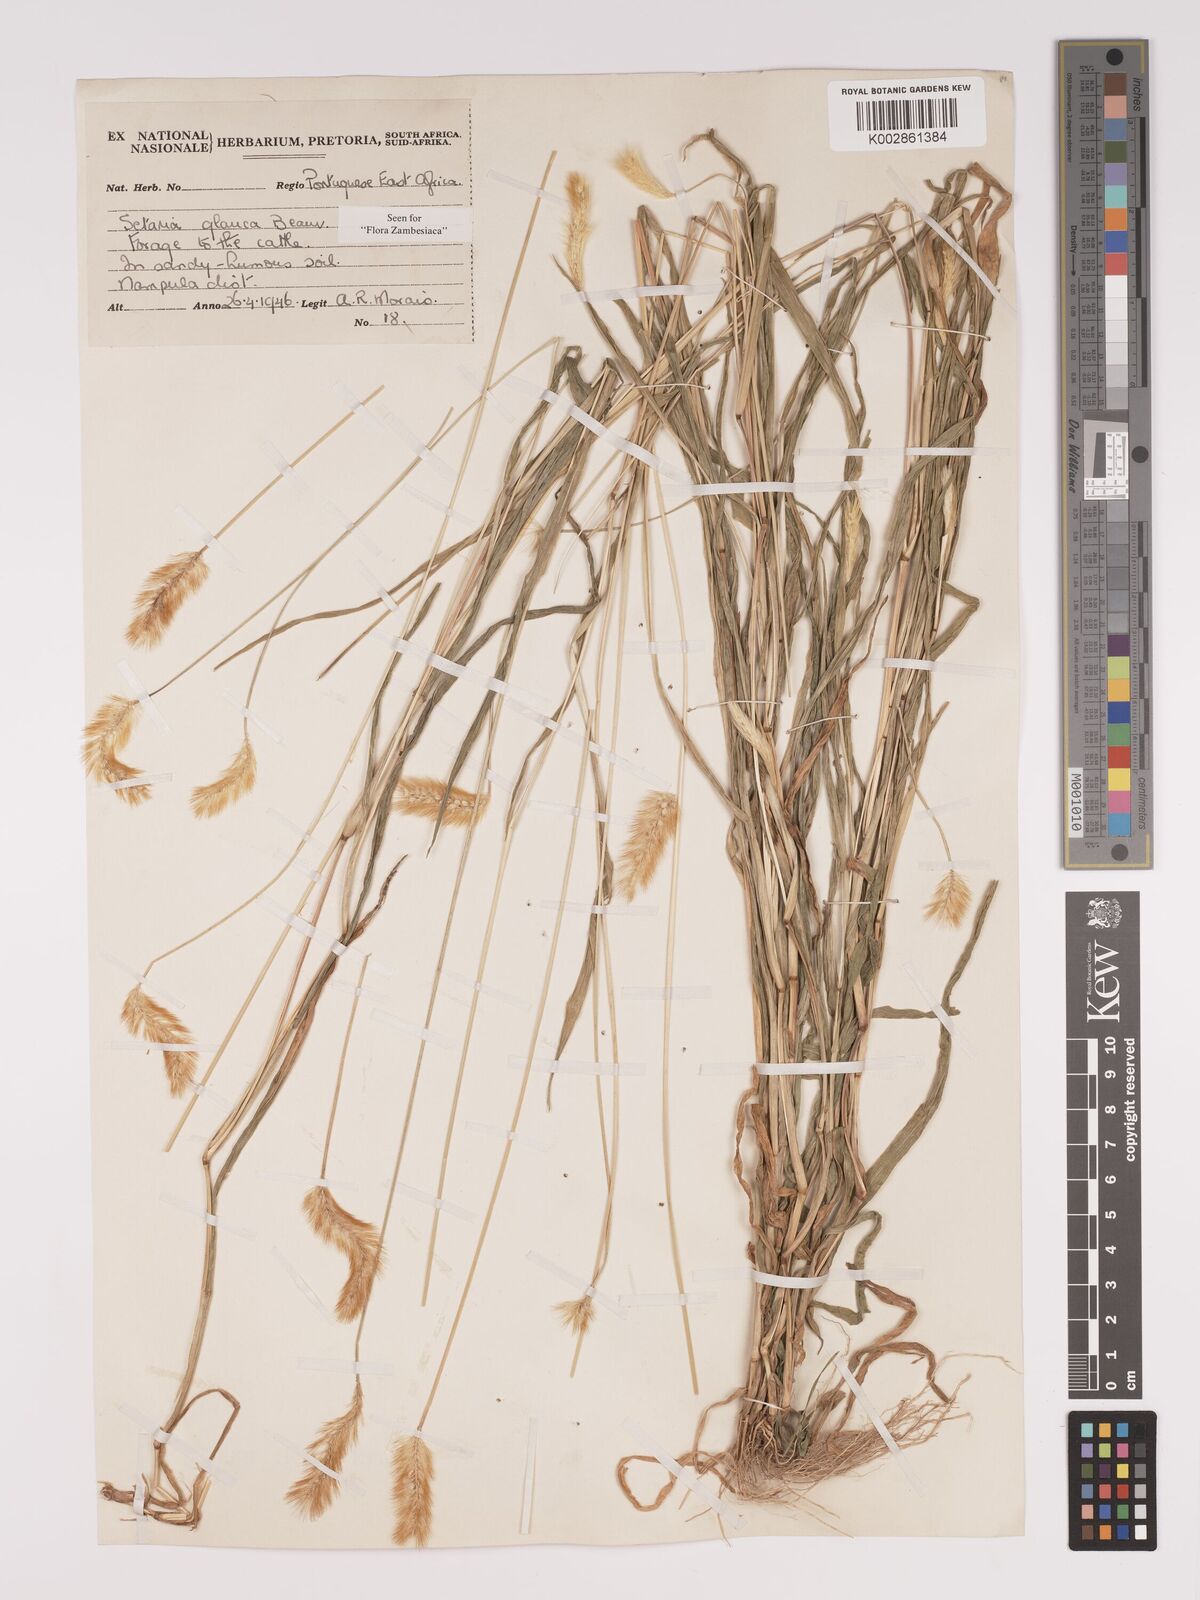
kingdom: Plantae
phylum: Tracheophyta
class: Liliopsida
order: Poales
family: Poaceae
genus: Setaria
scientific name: Setaria pumila
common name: Yellow bristle-grass
